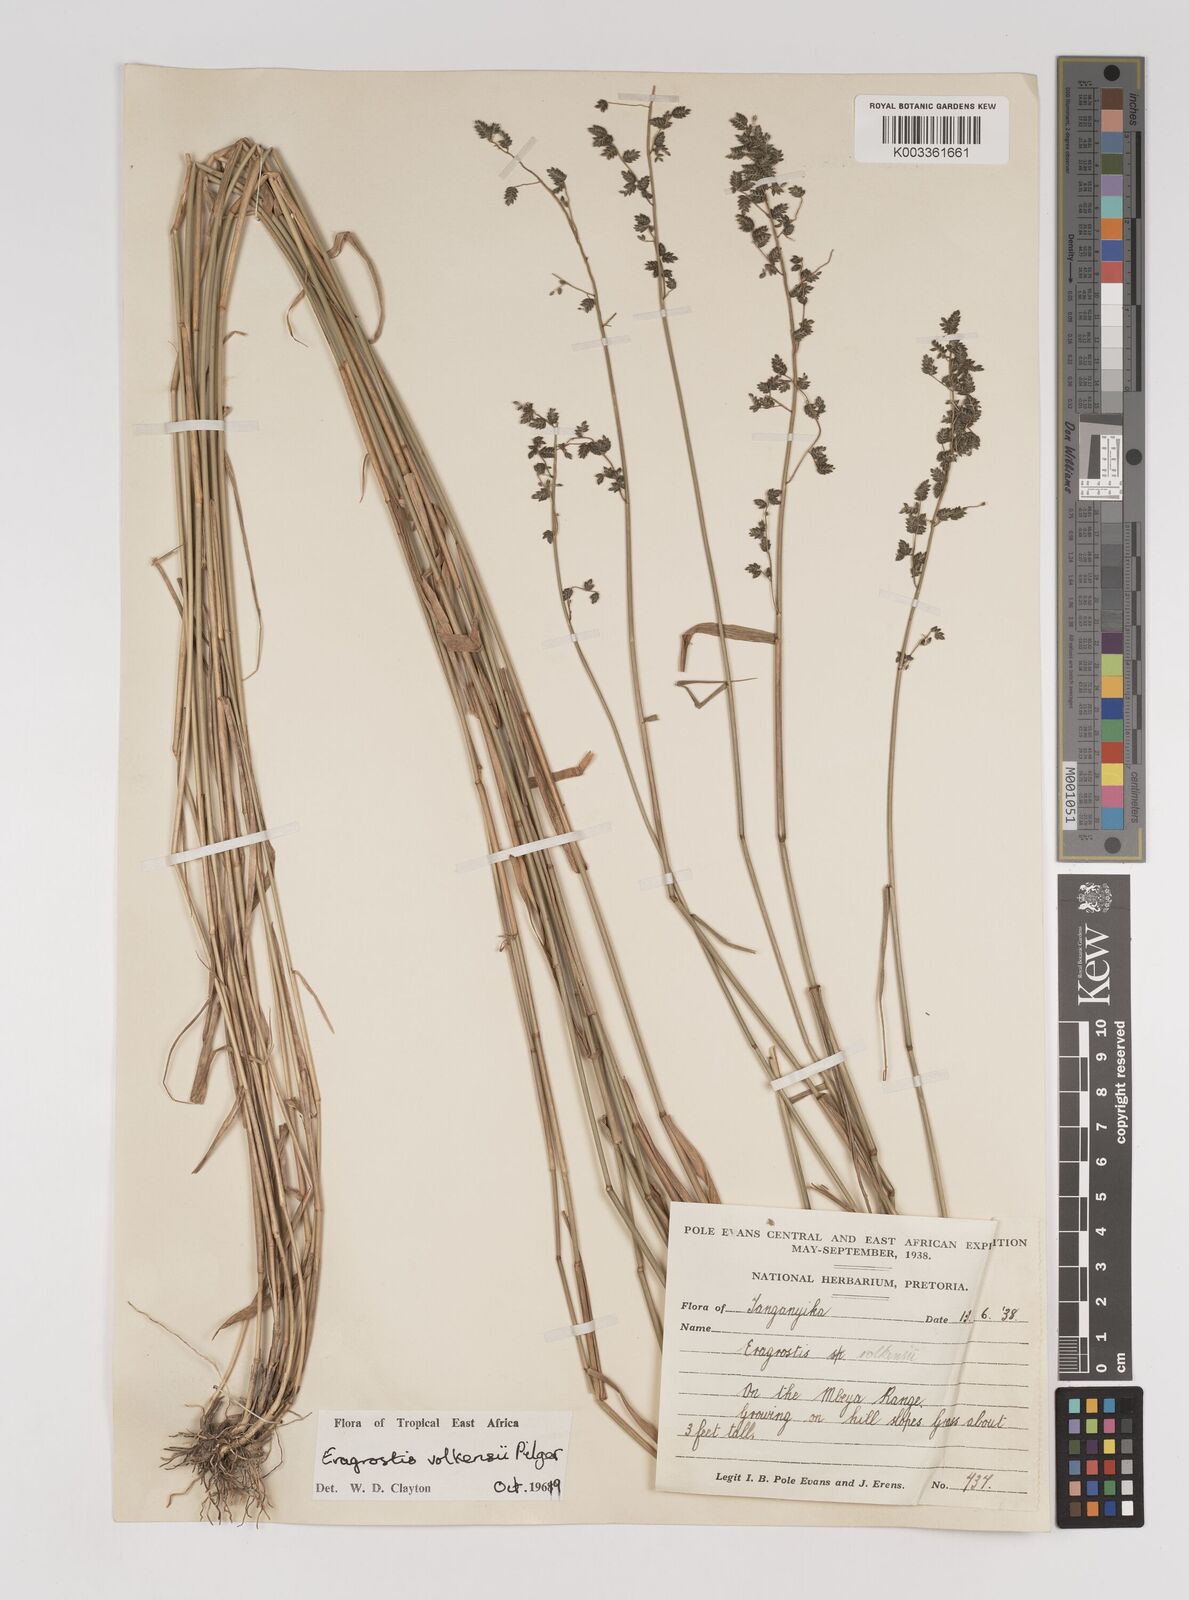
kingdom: Plantae
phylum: Tracheophyta
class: Liliopsida
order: Poales
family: Poaceae
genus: Eragrostis
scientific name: Eragrostis volkensii
